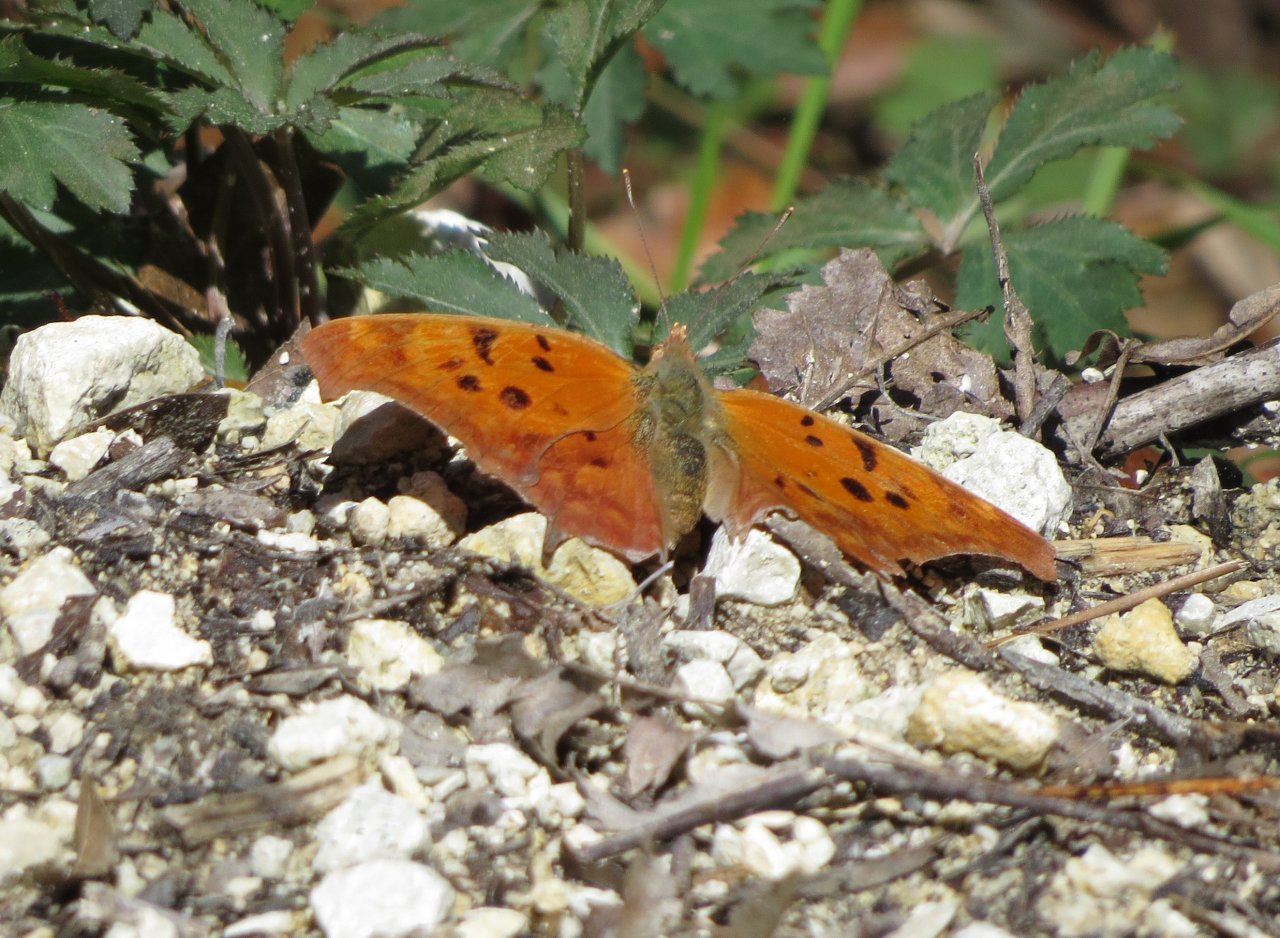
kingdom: Animalia
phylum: Arthropoda
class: Insecta
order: Lepidoptera
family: Nymphalidae
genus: Polygonia
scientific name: Polygonia interrogationis
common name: Question Mark
